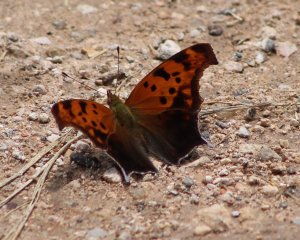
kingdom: Animalia
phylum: Arthropoda
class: Insecta
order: Lepidoptera
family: Nymphalidae
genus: Polygonia
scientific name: Polygonia comma
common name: Eastern Comma
